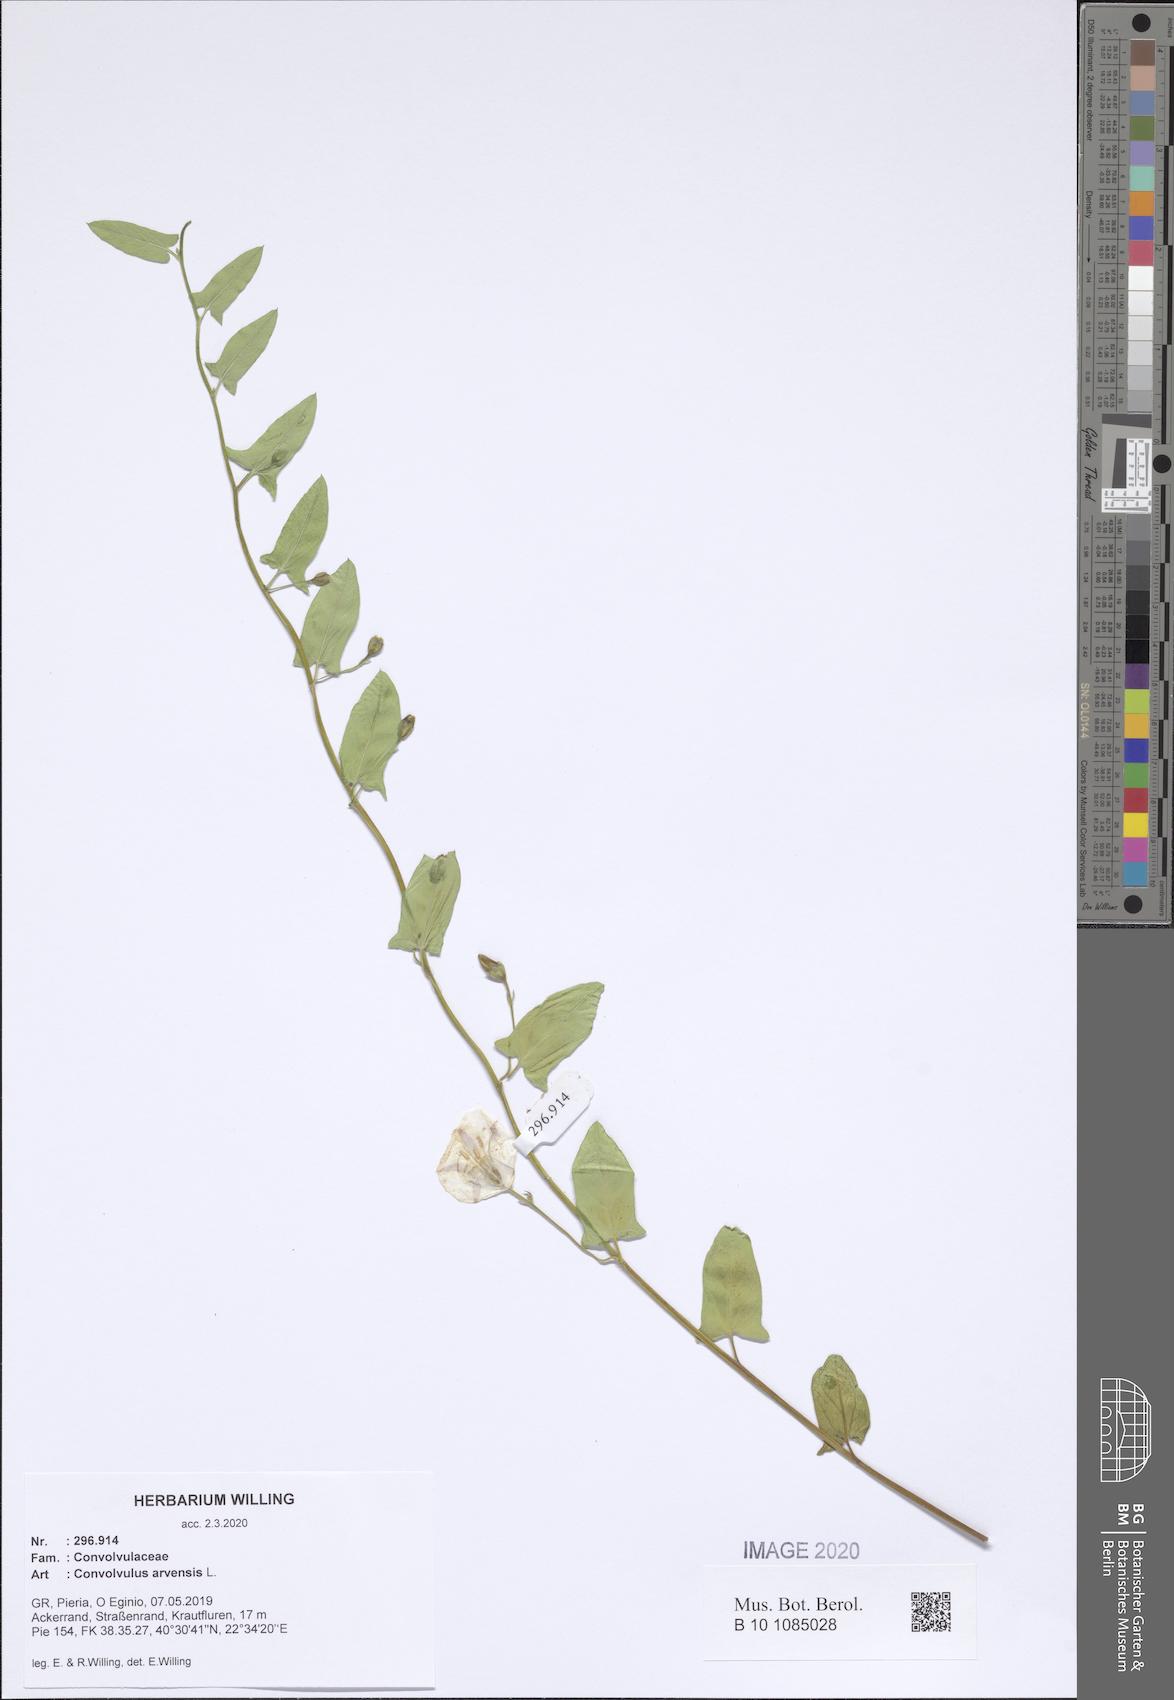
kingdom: Plantae
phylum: Tracheophyta
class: Magnoliopsida
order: Solanales
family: Convolvulaceae
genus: Convolvulus
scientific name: Convolvulus arvensis
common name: Field bindweed
